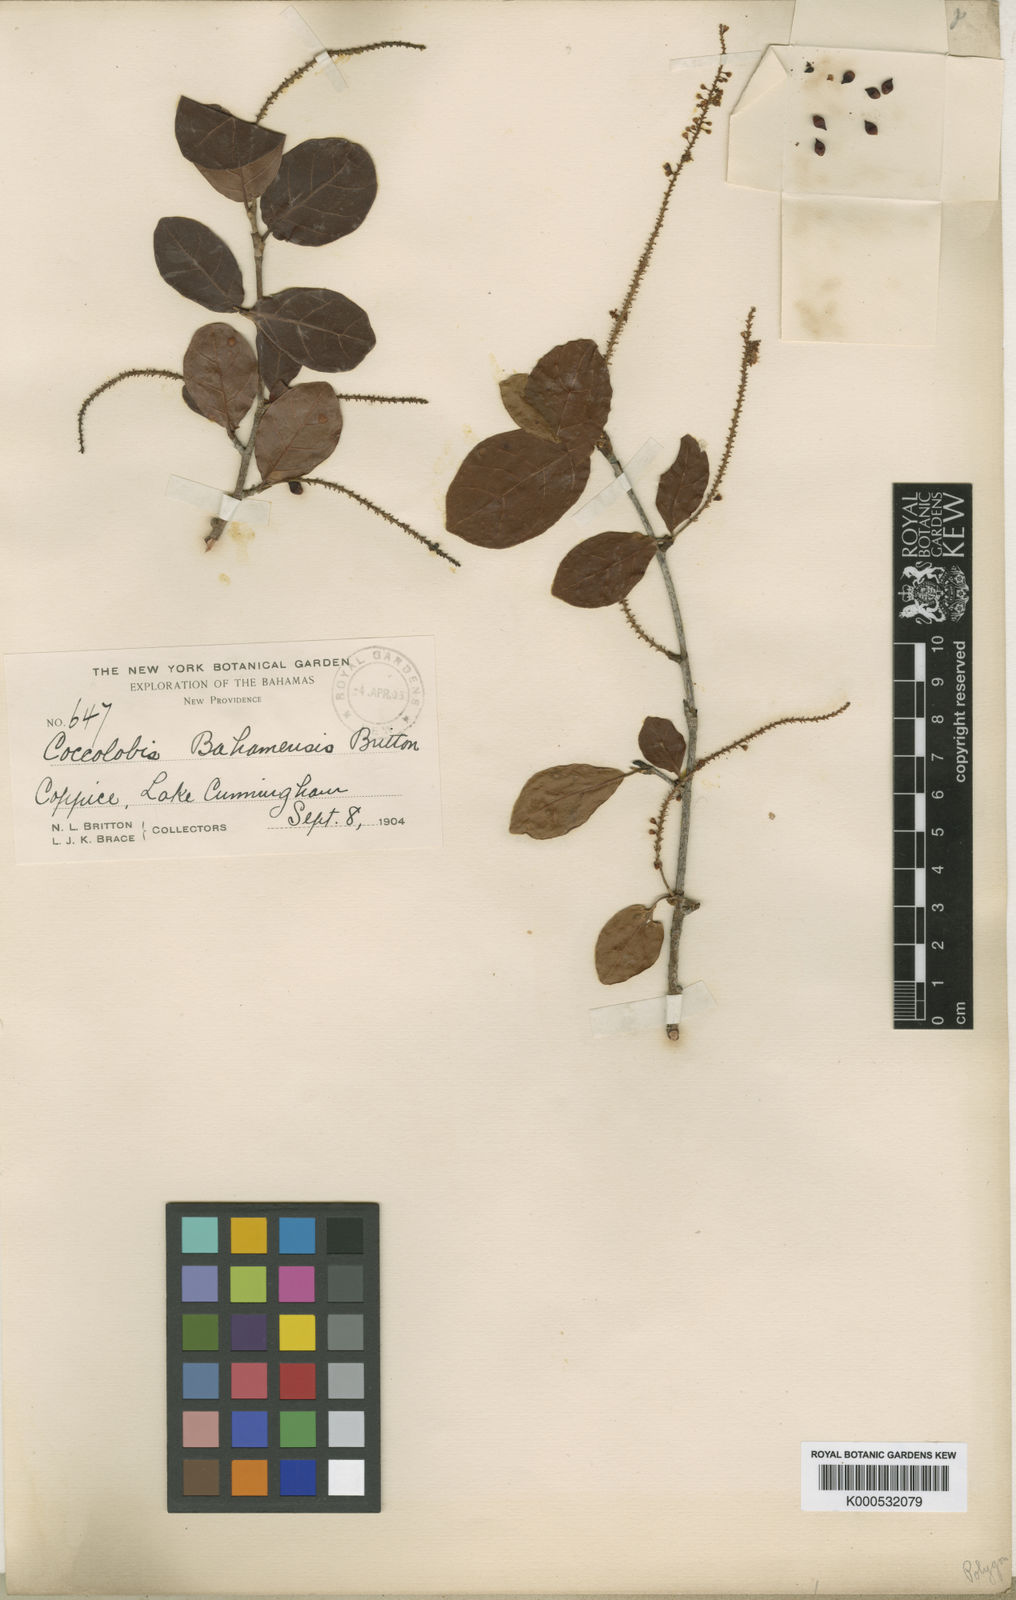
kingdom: Plantae
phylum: Tracheophyta
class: Magnoliopsida
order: Caryophyllales
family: Polygonaceae
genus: Coccoloba
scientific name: Coccoloba tenuifolia
